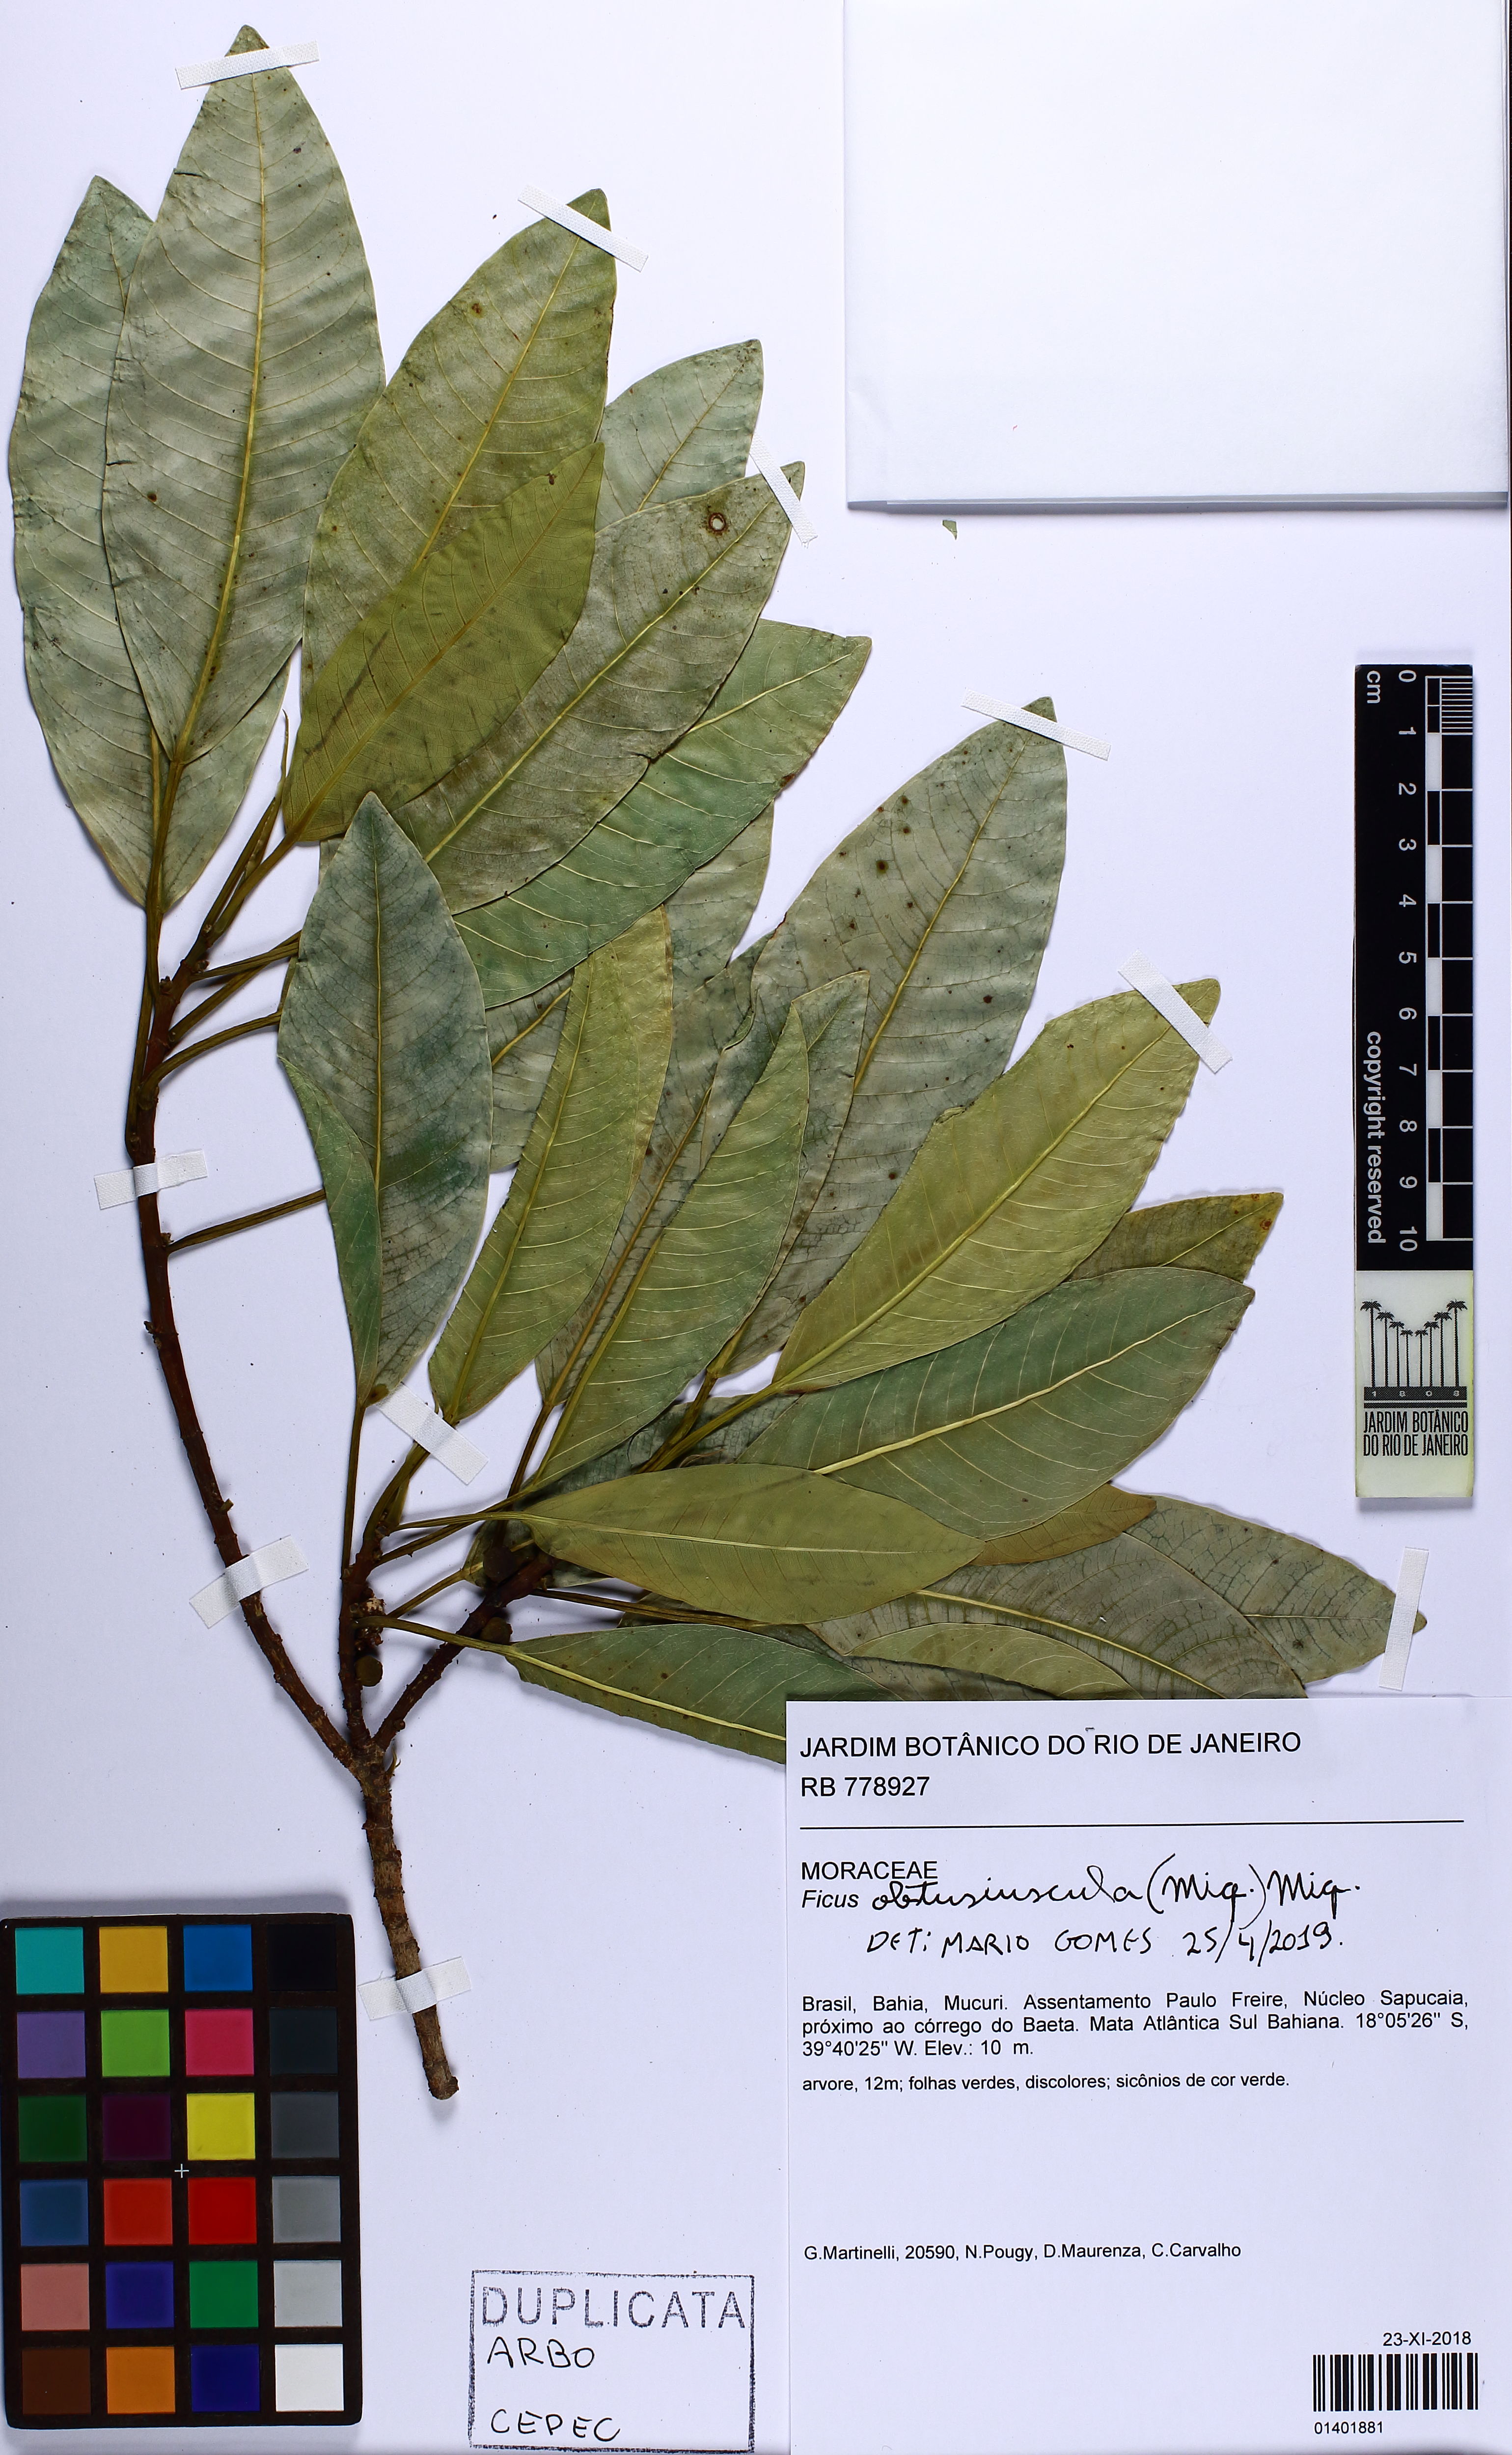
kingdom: Plantae
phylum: Tracheophyta
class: Magnoliopsida
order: Rosales
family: Moraceae
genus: Ficus
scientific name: Ficus obtusiuscula
